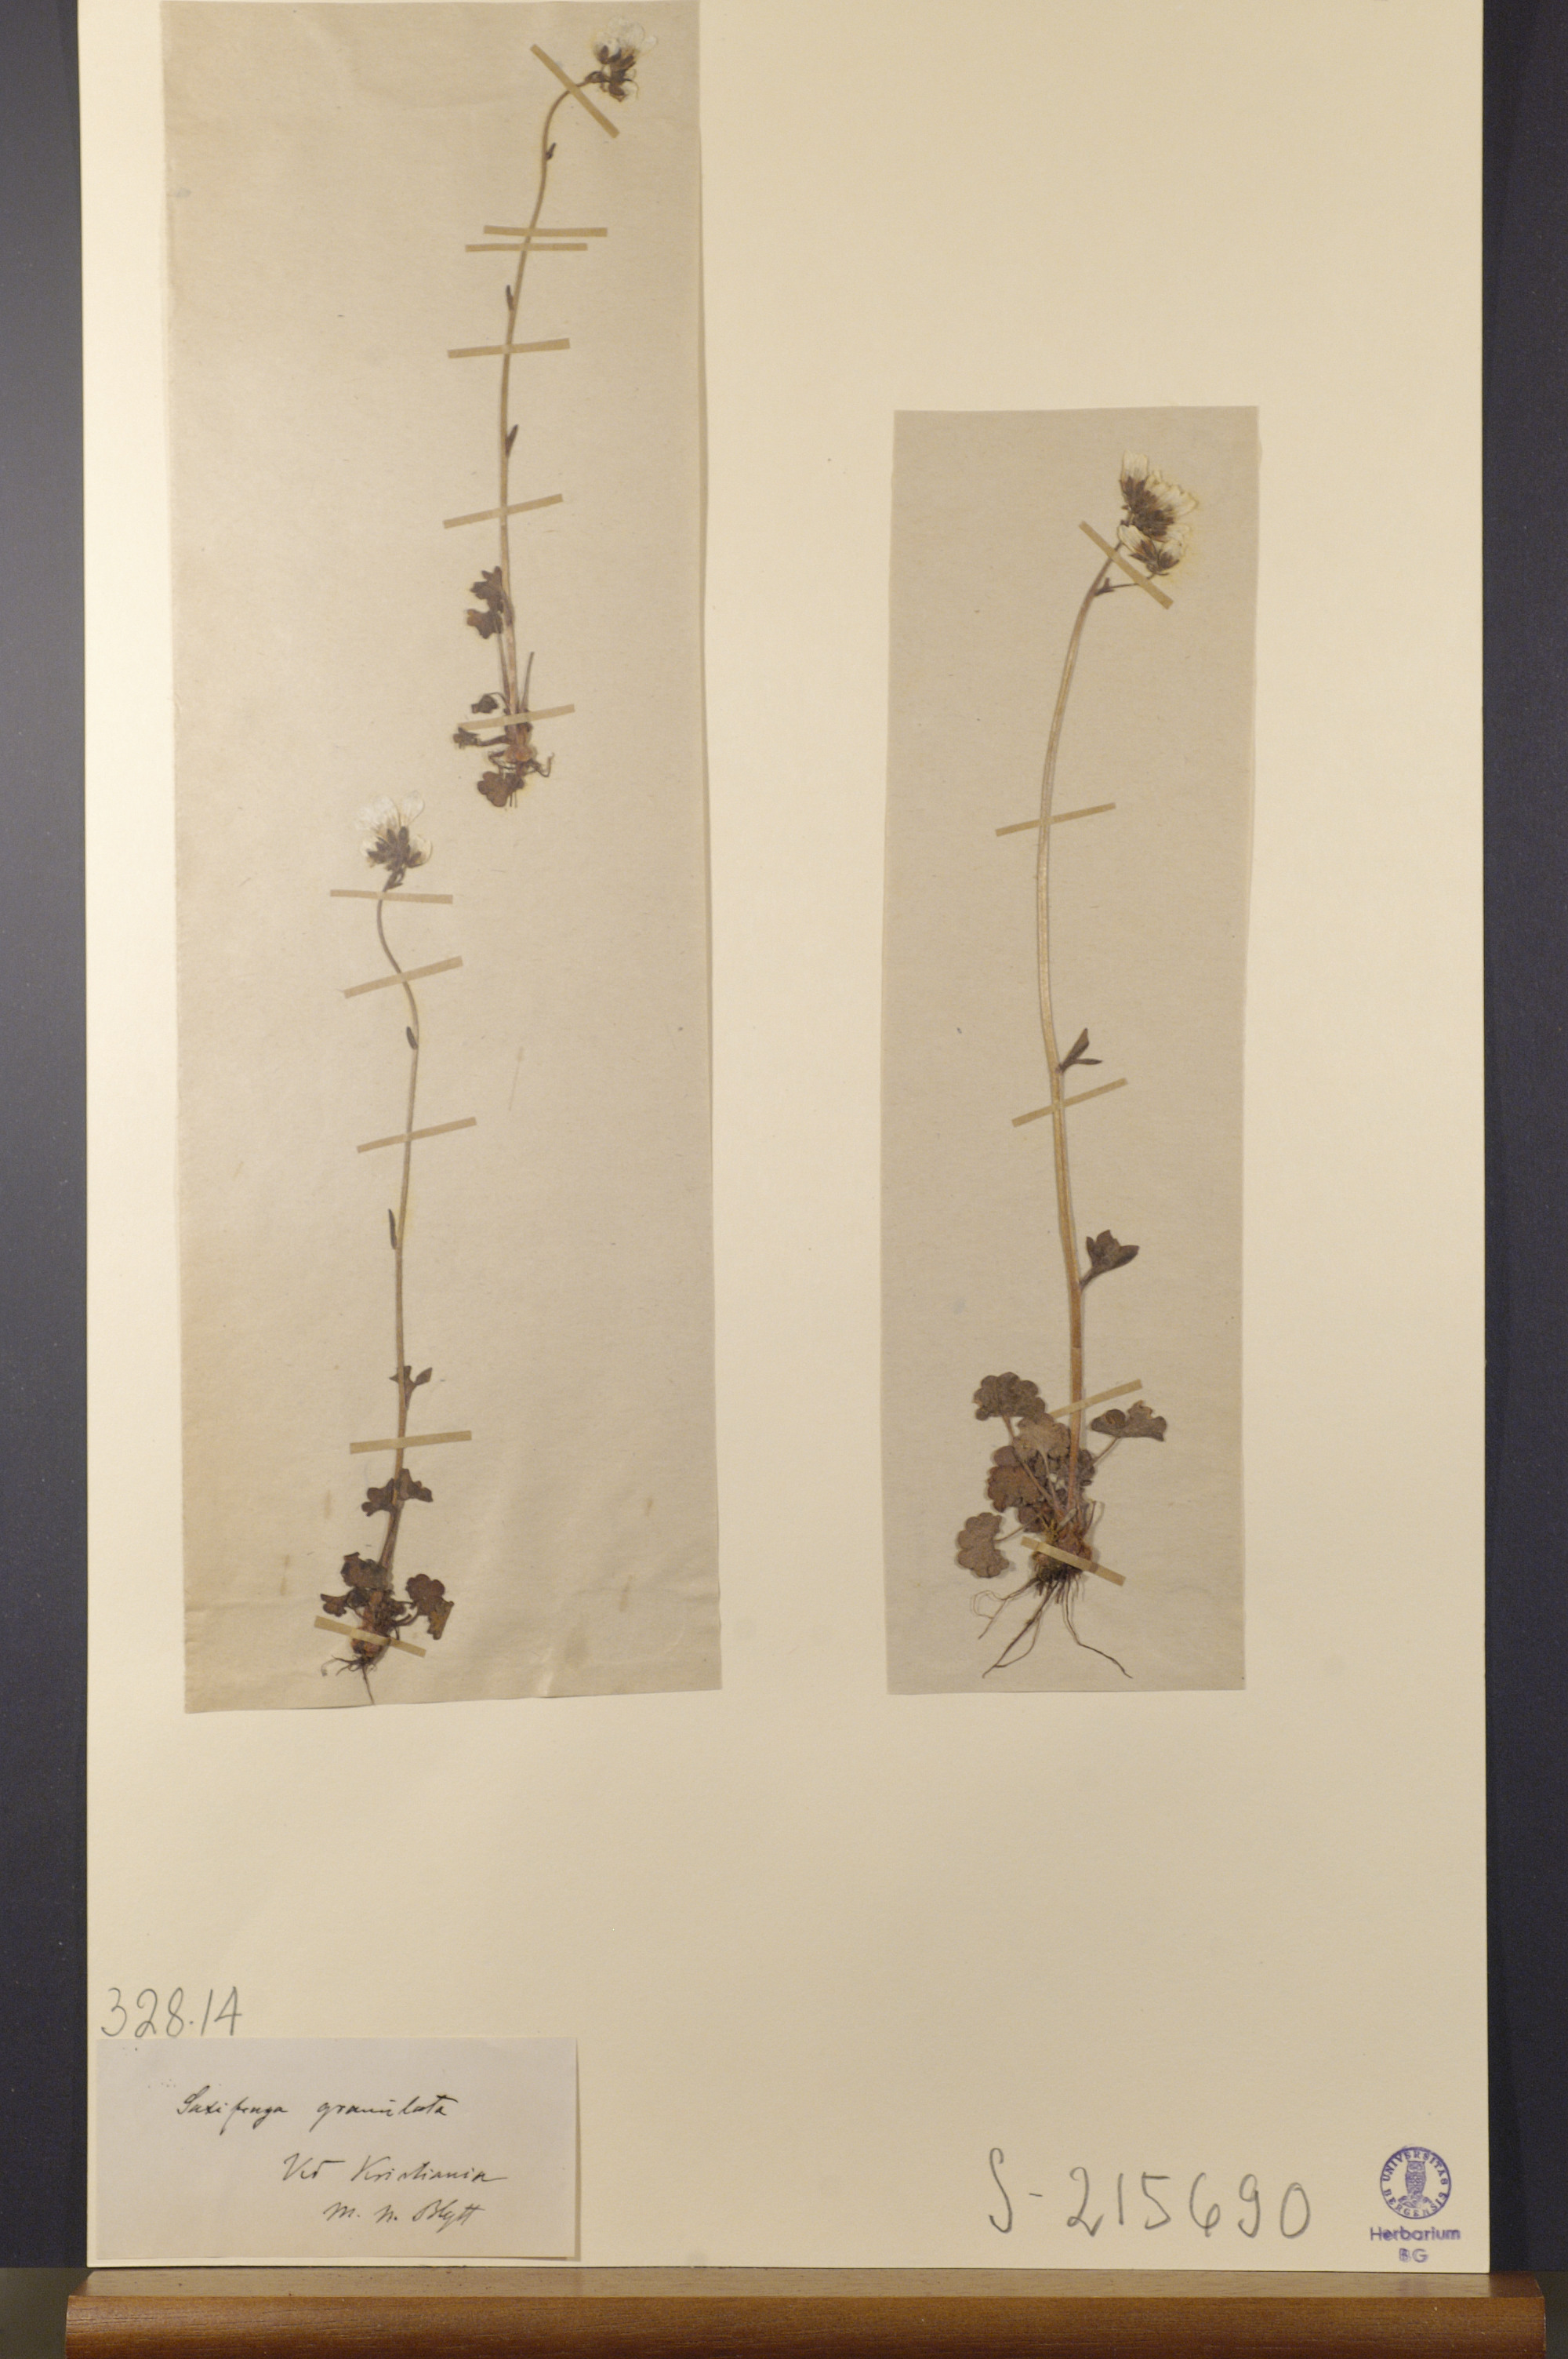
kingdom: Plantae
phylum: Tracheophyta
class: Magnoliopsida
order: Saxifragales
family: Saxifragaceae
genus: Saxifraga
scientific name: Saxifraga granulata
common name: Meadow saxifrage
